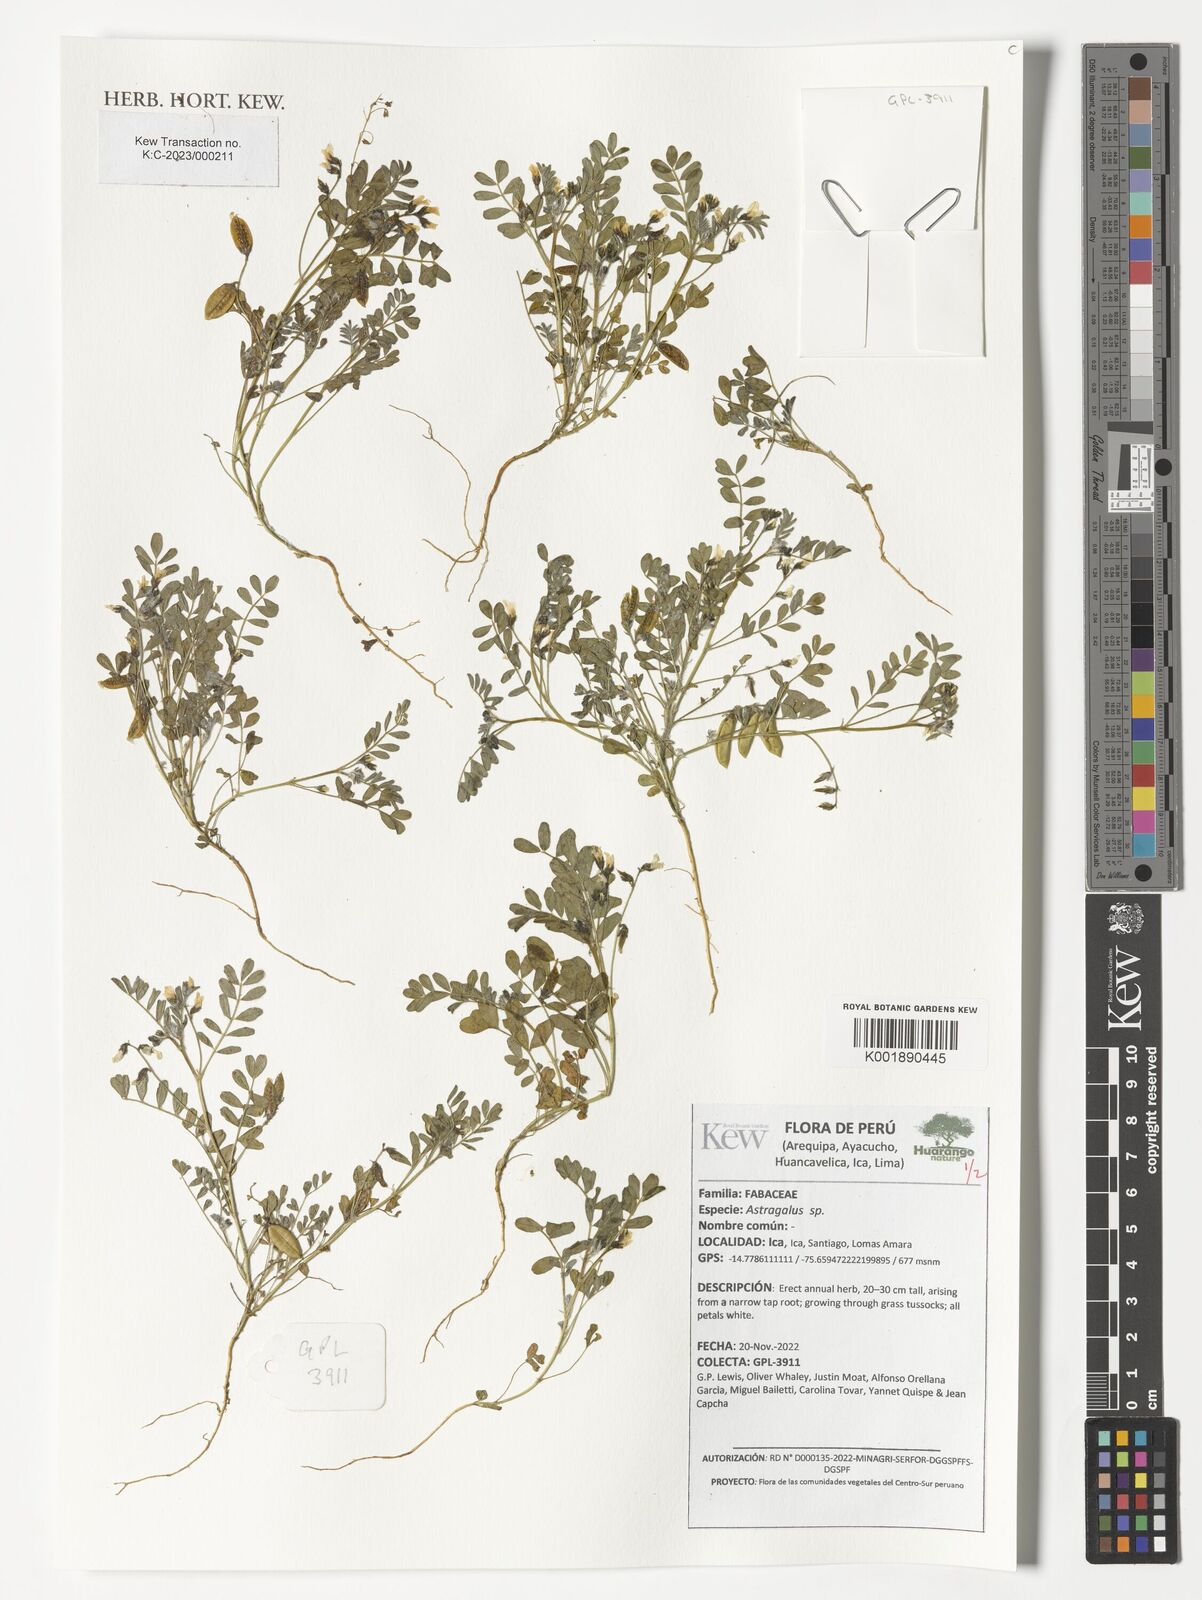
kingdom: Plantae
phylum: Tracheophyta
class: Magnoliopsida
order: Fabales
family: Fabaceae
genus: Astragalus
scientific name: Astragalus
